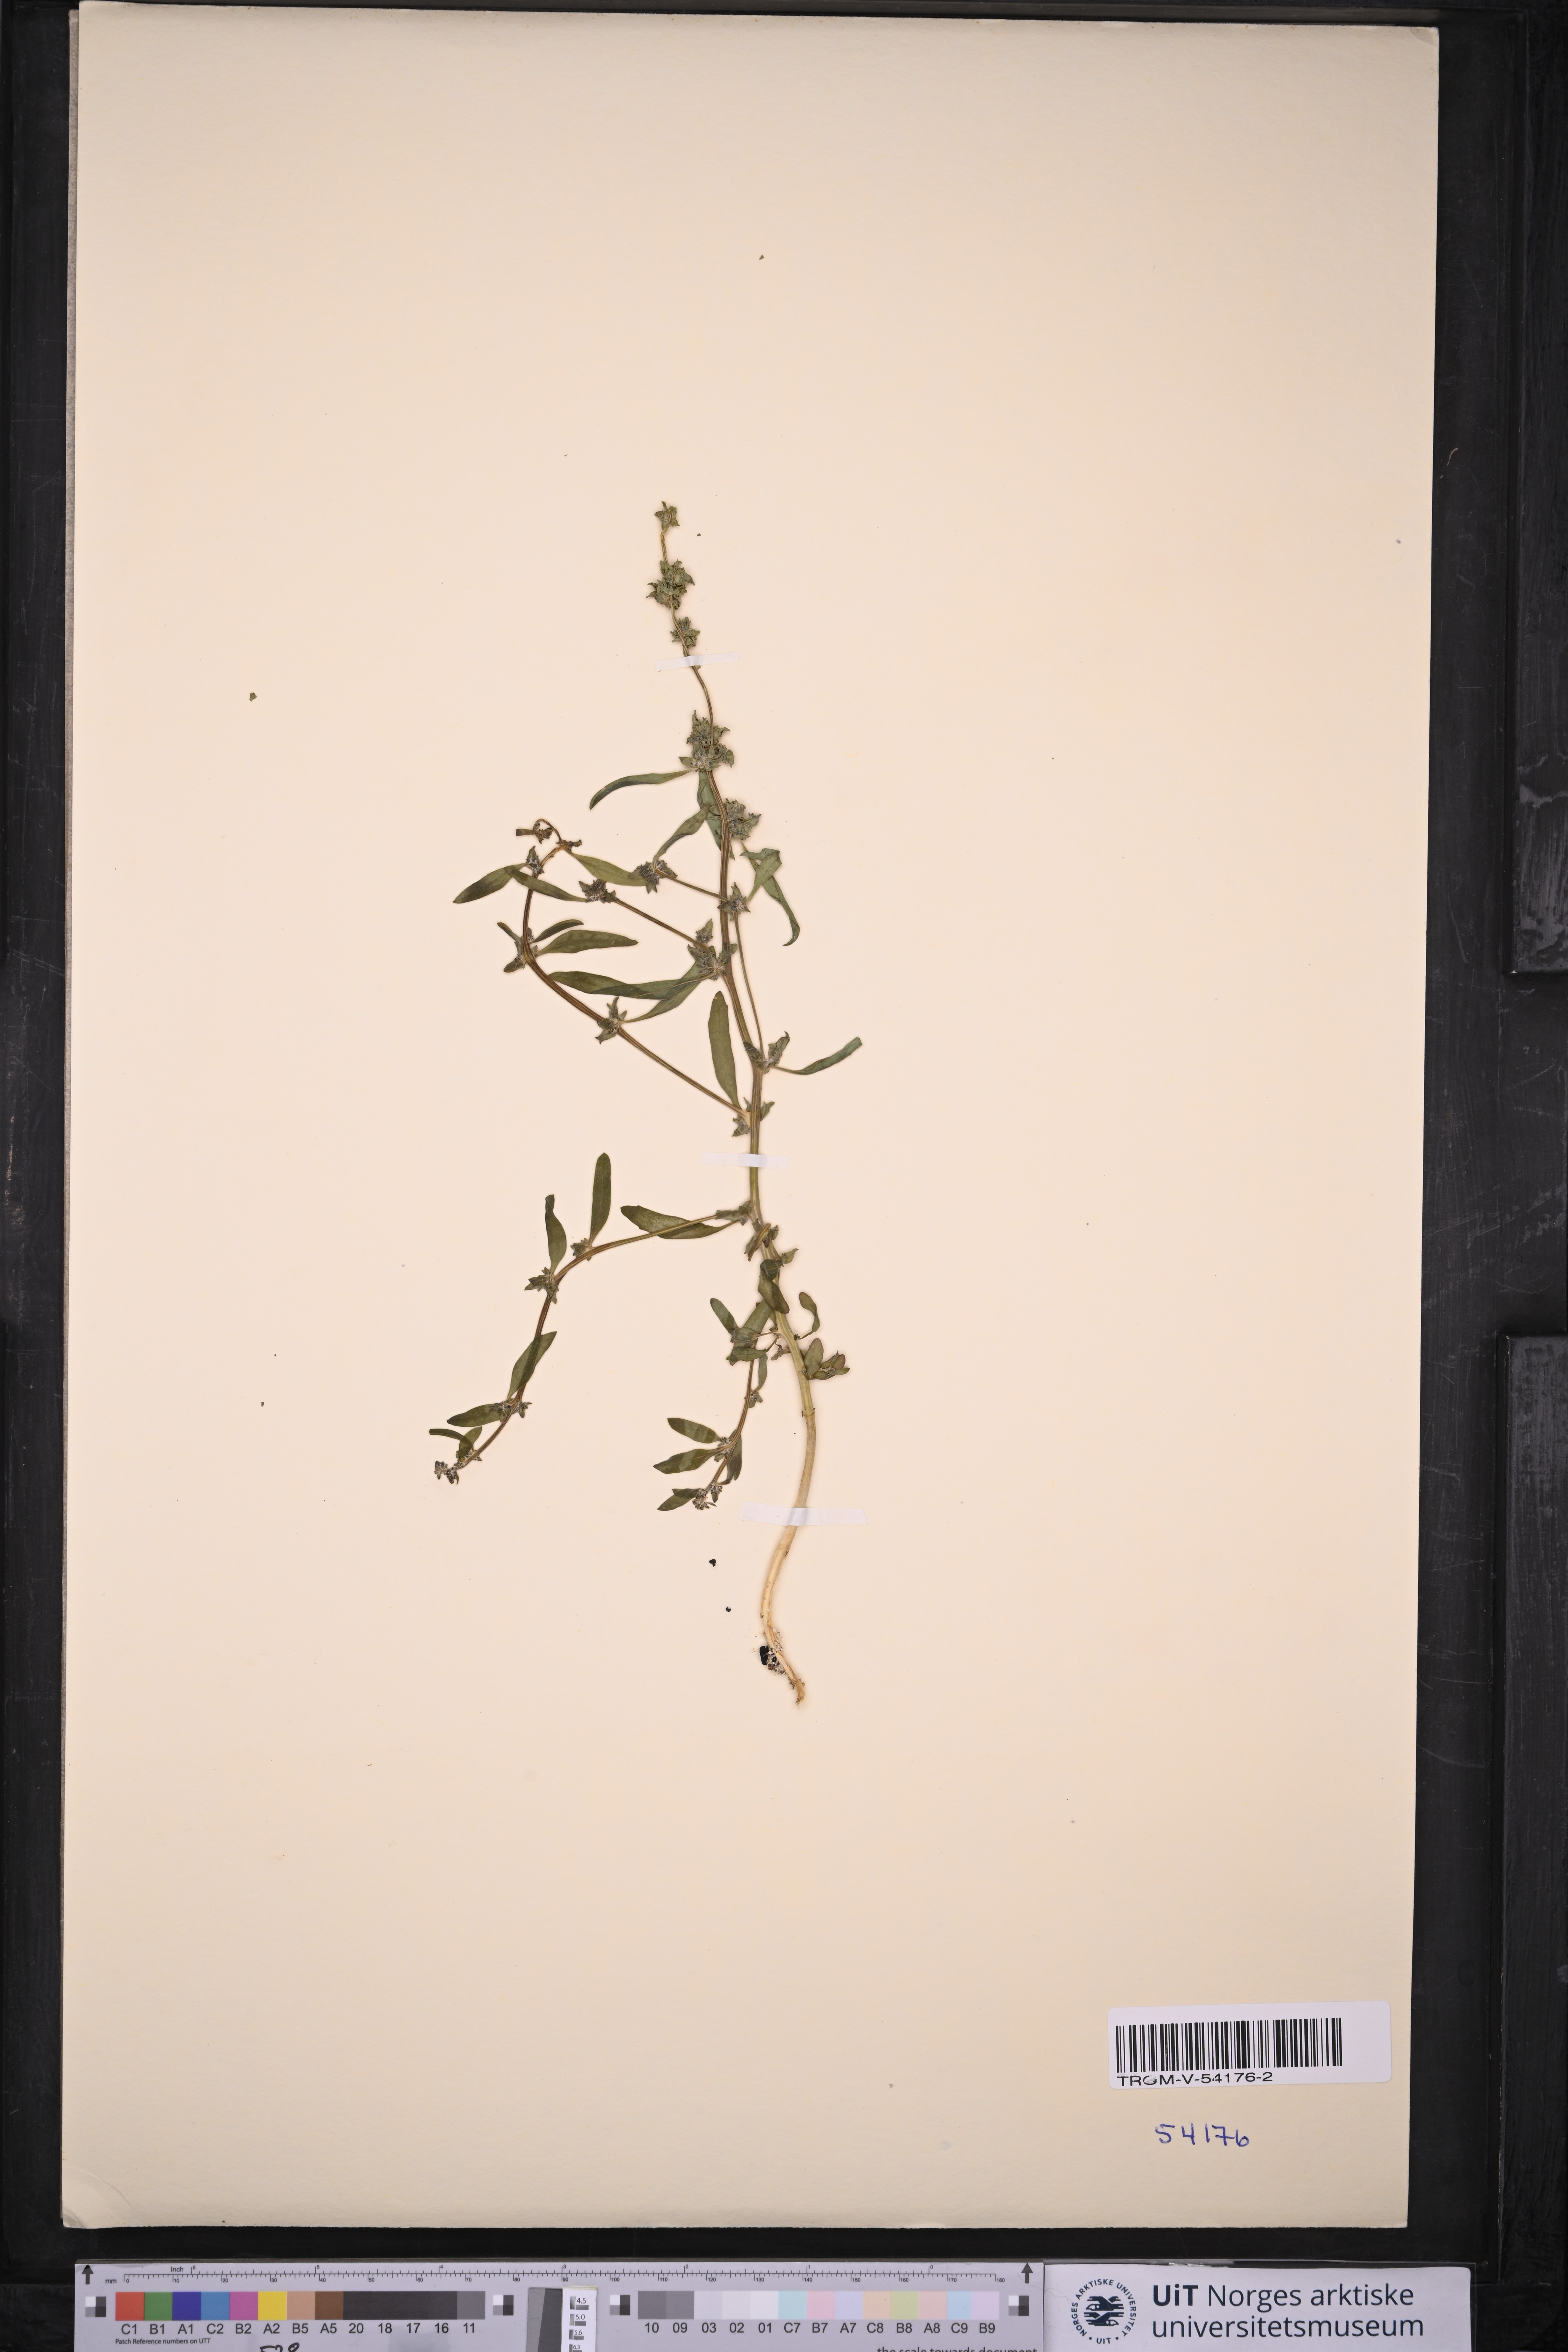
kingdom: Plantae
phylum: Tracheophyta
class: Magnoliopsida
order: Caryophyllales
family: Amaranthaceae
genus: Atriplex
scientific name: Atriplex littoralis
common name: Grass-leaved orache
